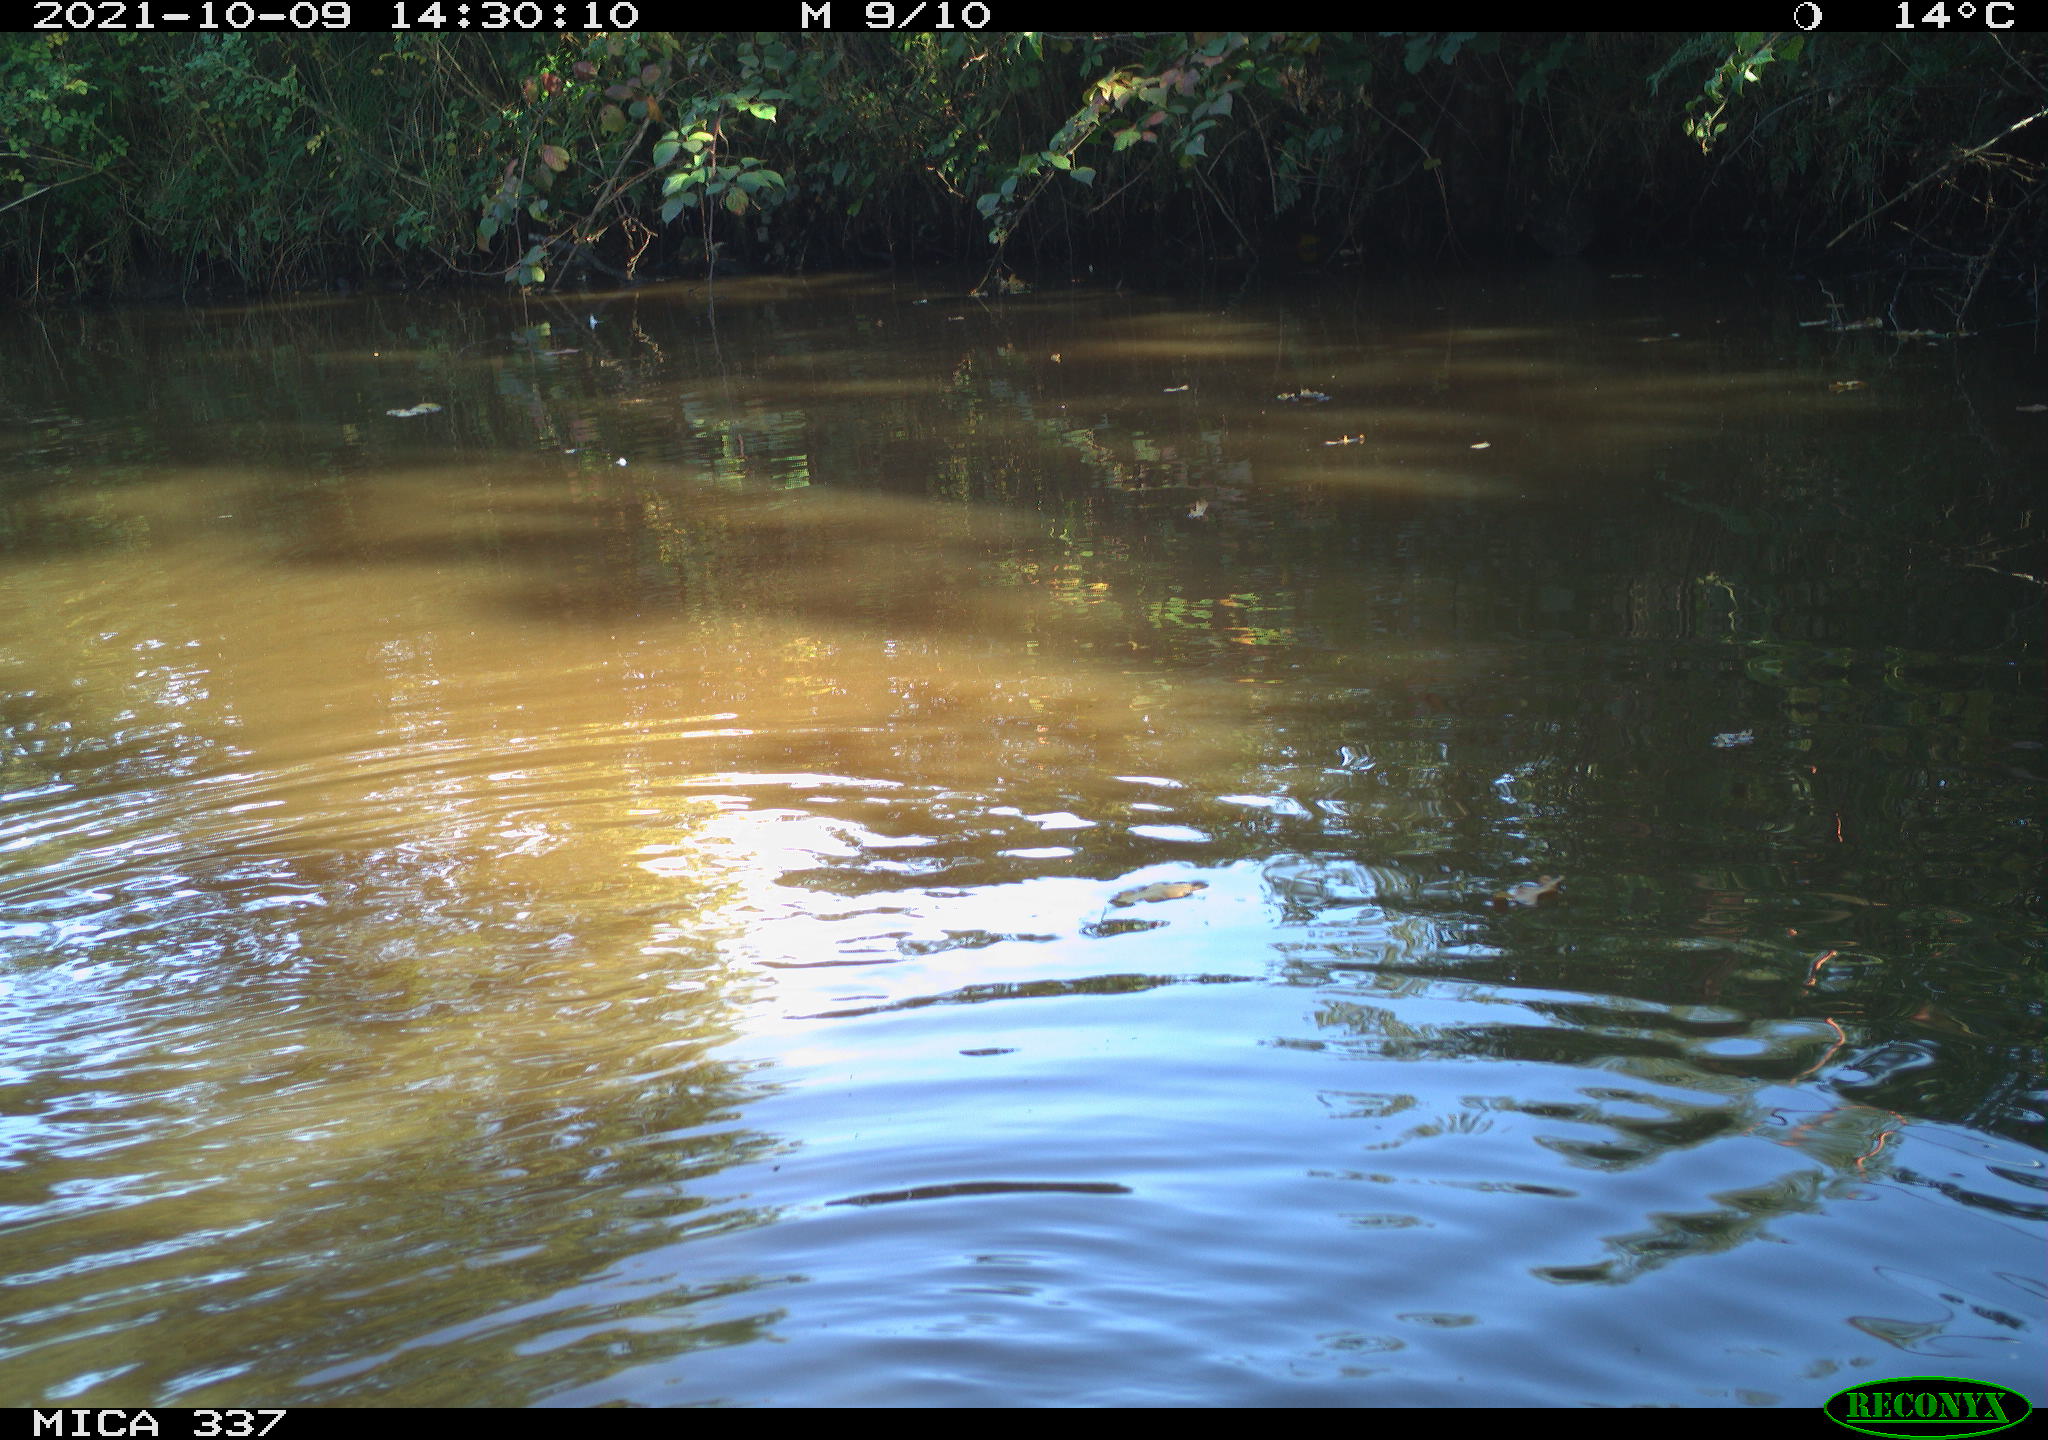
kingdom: Animalia
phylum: Chordata
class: Aves
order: Anseriformes
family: Anatidae
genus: Anas
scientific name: Anas platyrhynchos
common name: Mallard
